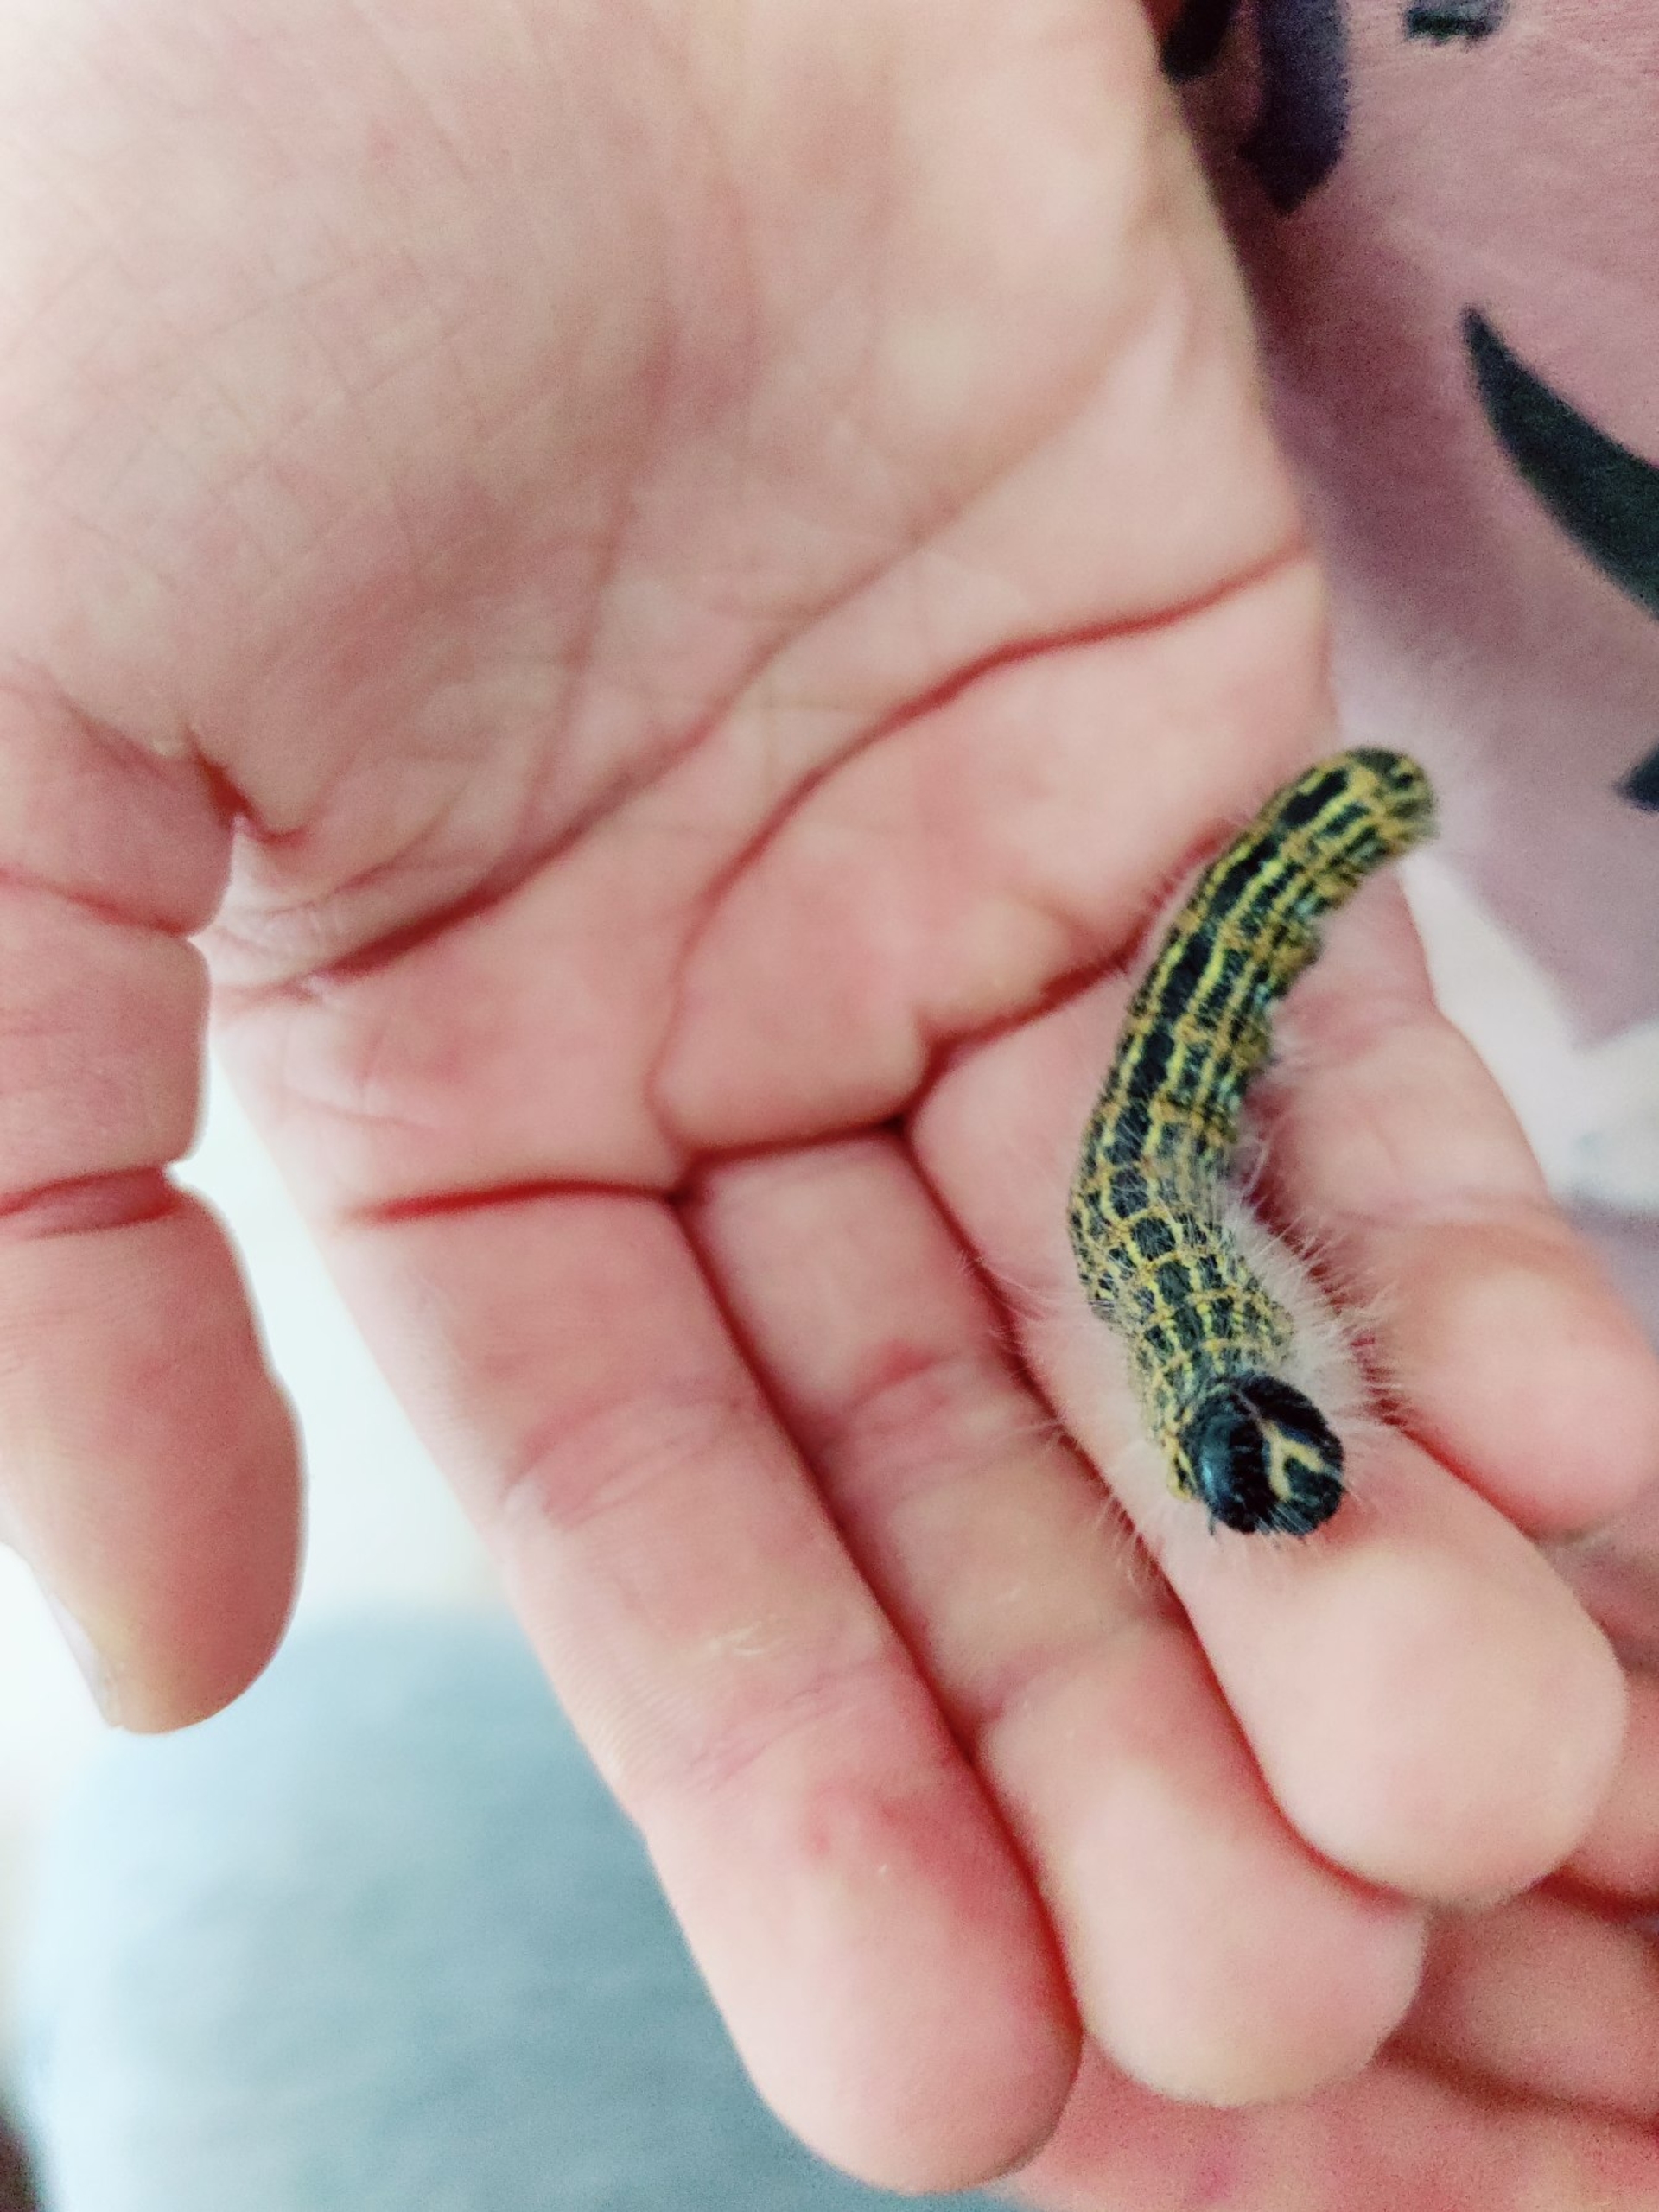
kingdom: Animalia
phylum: Arthropoda
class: Insecta
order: Lepidoptera
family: Notodontidae
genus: Phalera
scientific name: Phalera bucephala
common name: Måneplet
